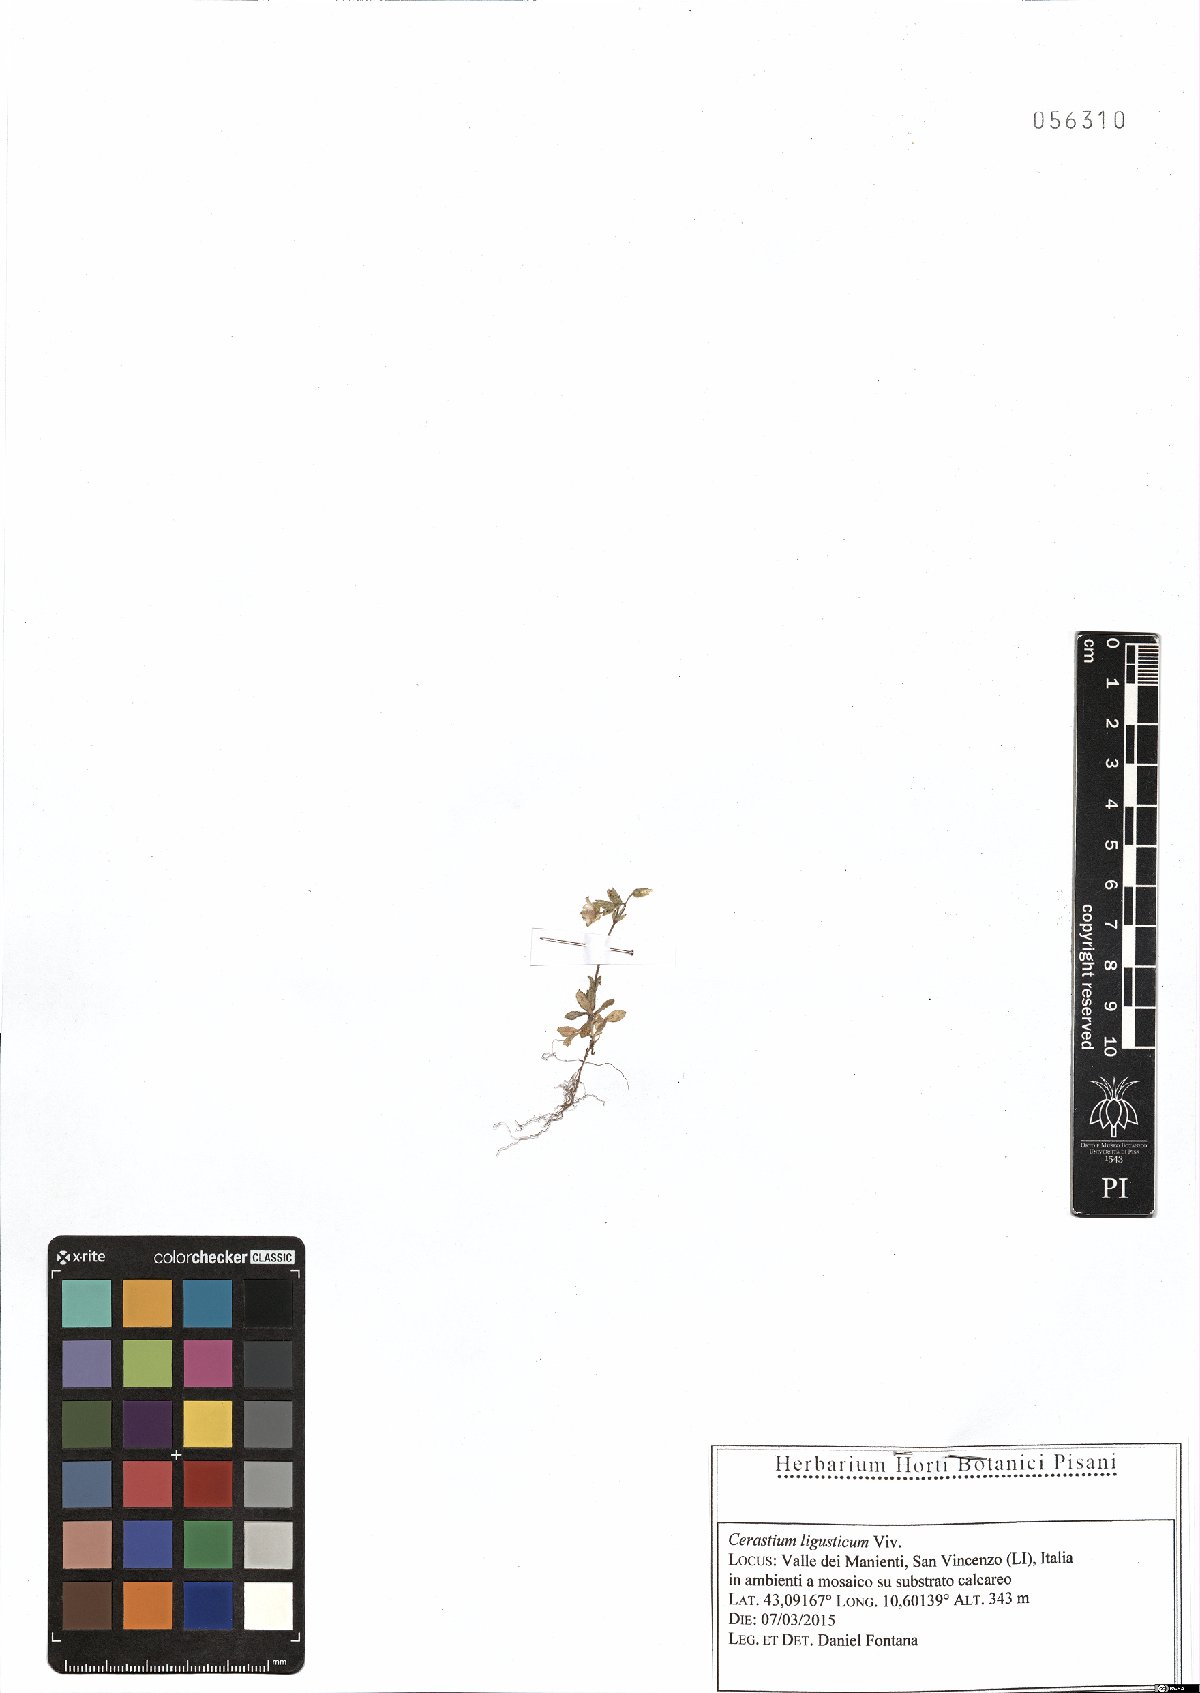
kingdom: Plantae
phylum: Tracheophyta
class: Magnoliopsida
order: Caryophyllales
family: Caryophyllaceae
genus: Cerastium
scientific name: Cerastium ligusticum
